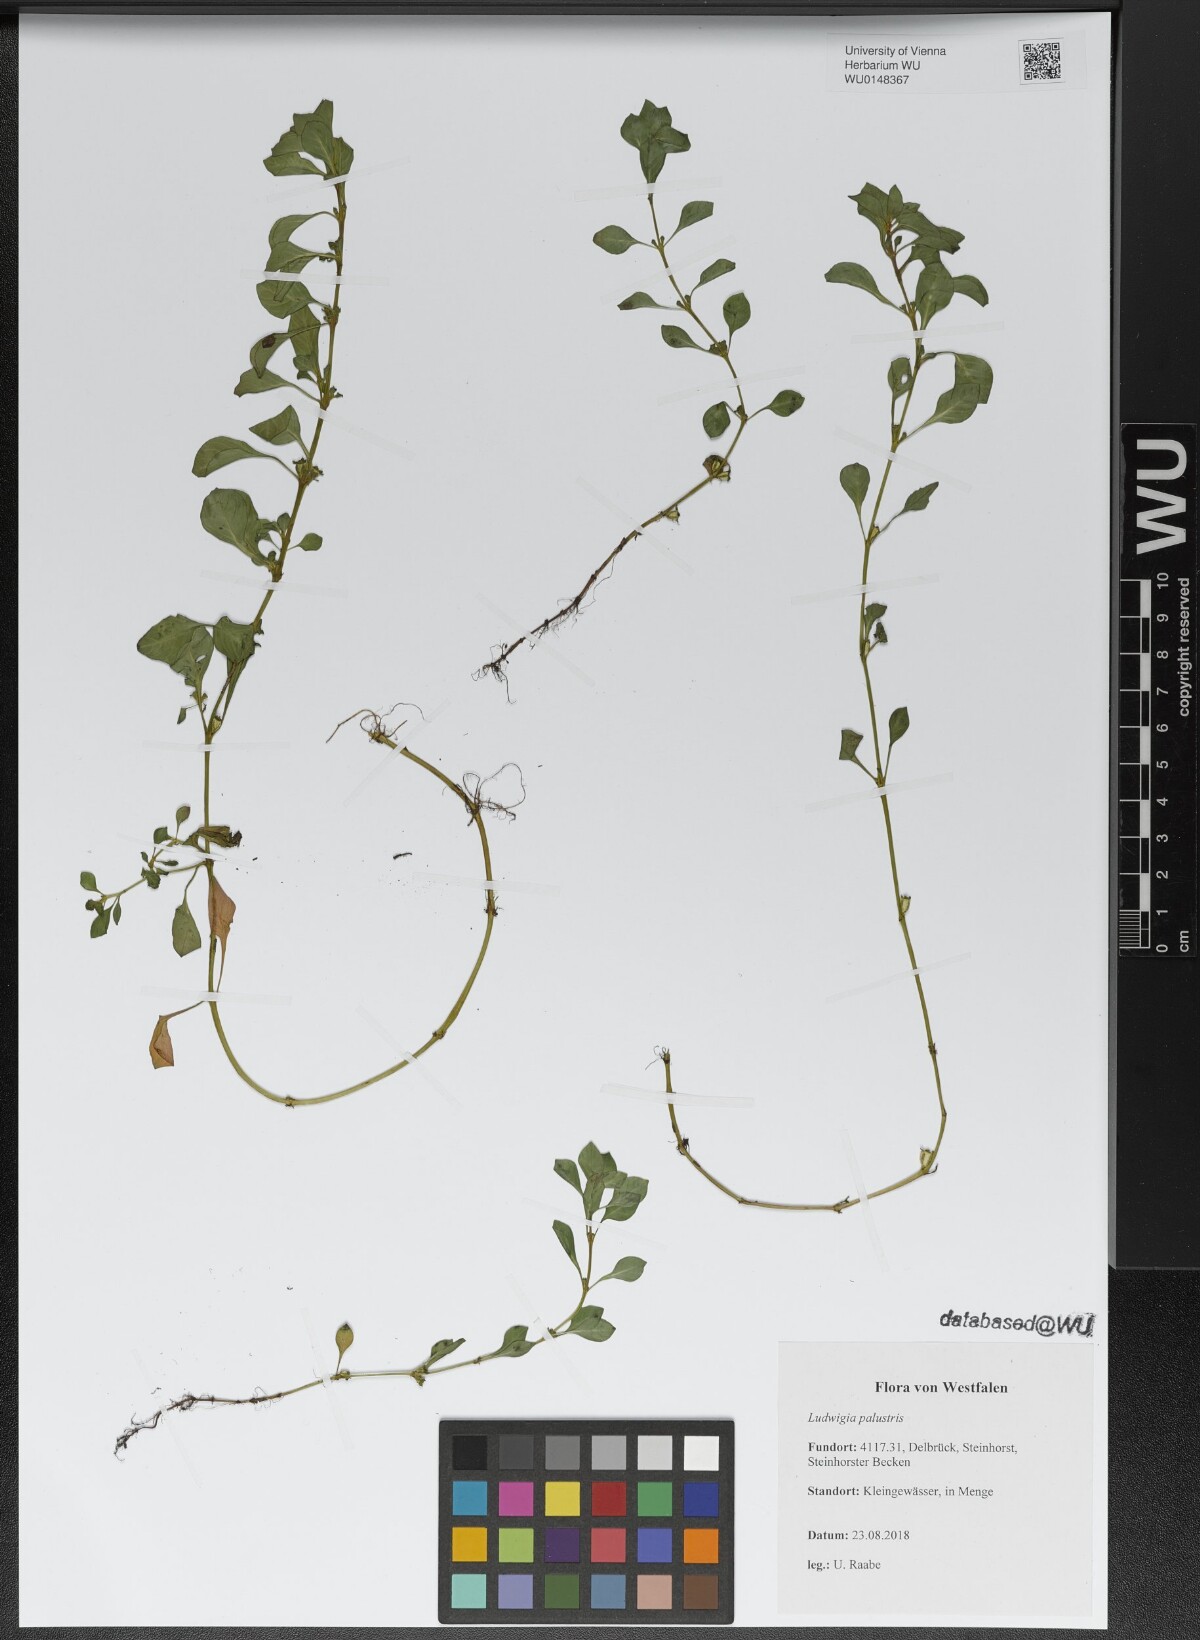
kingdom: Plantae
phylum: Tracheophyta
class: Magnoliopsida
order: Myrtales
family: Onagraceae
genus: Ludwigia
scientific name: Ludwigia palustris
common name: Hampshire-purslane
